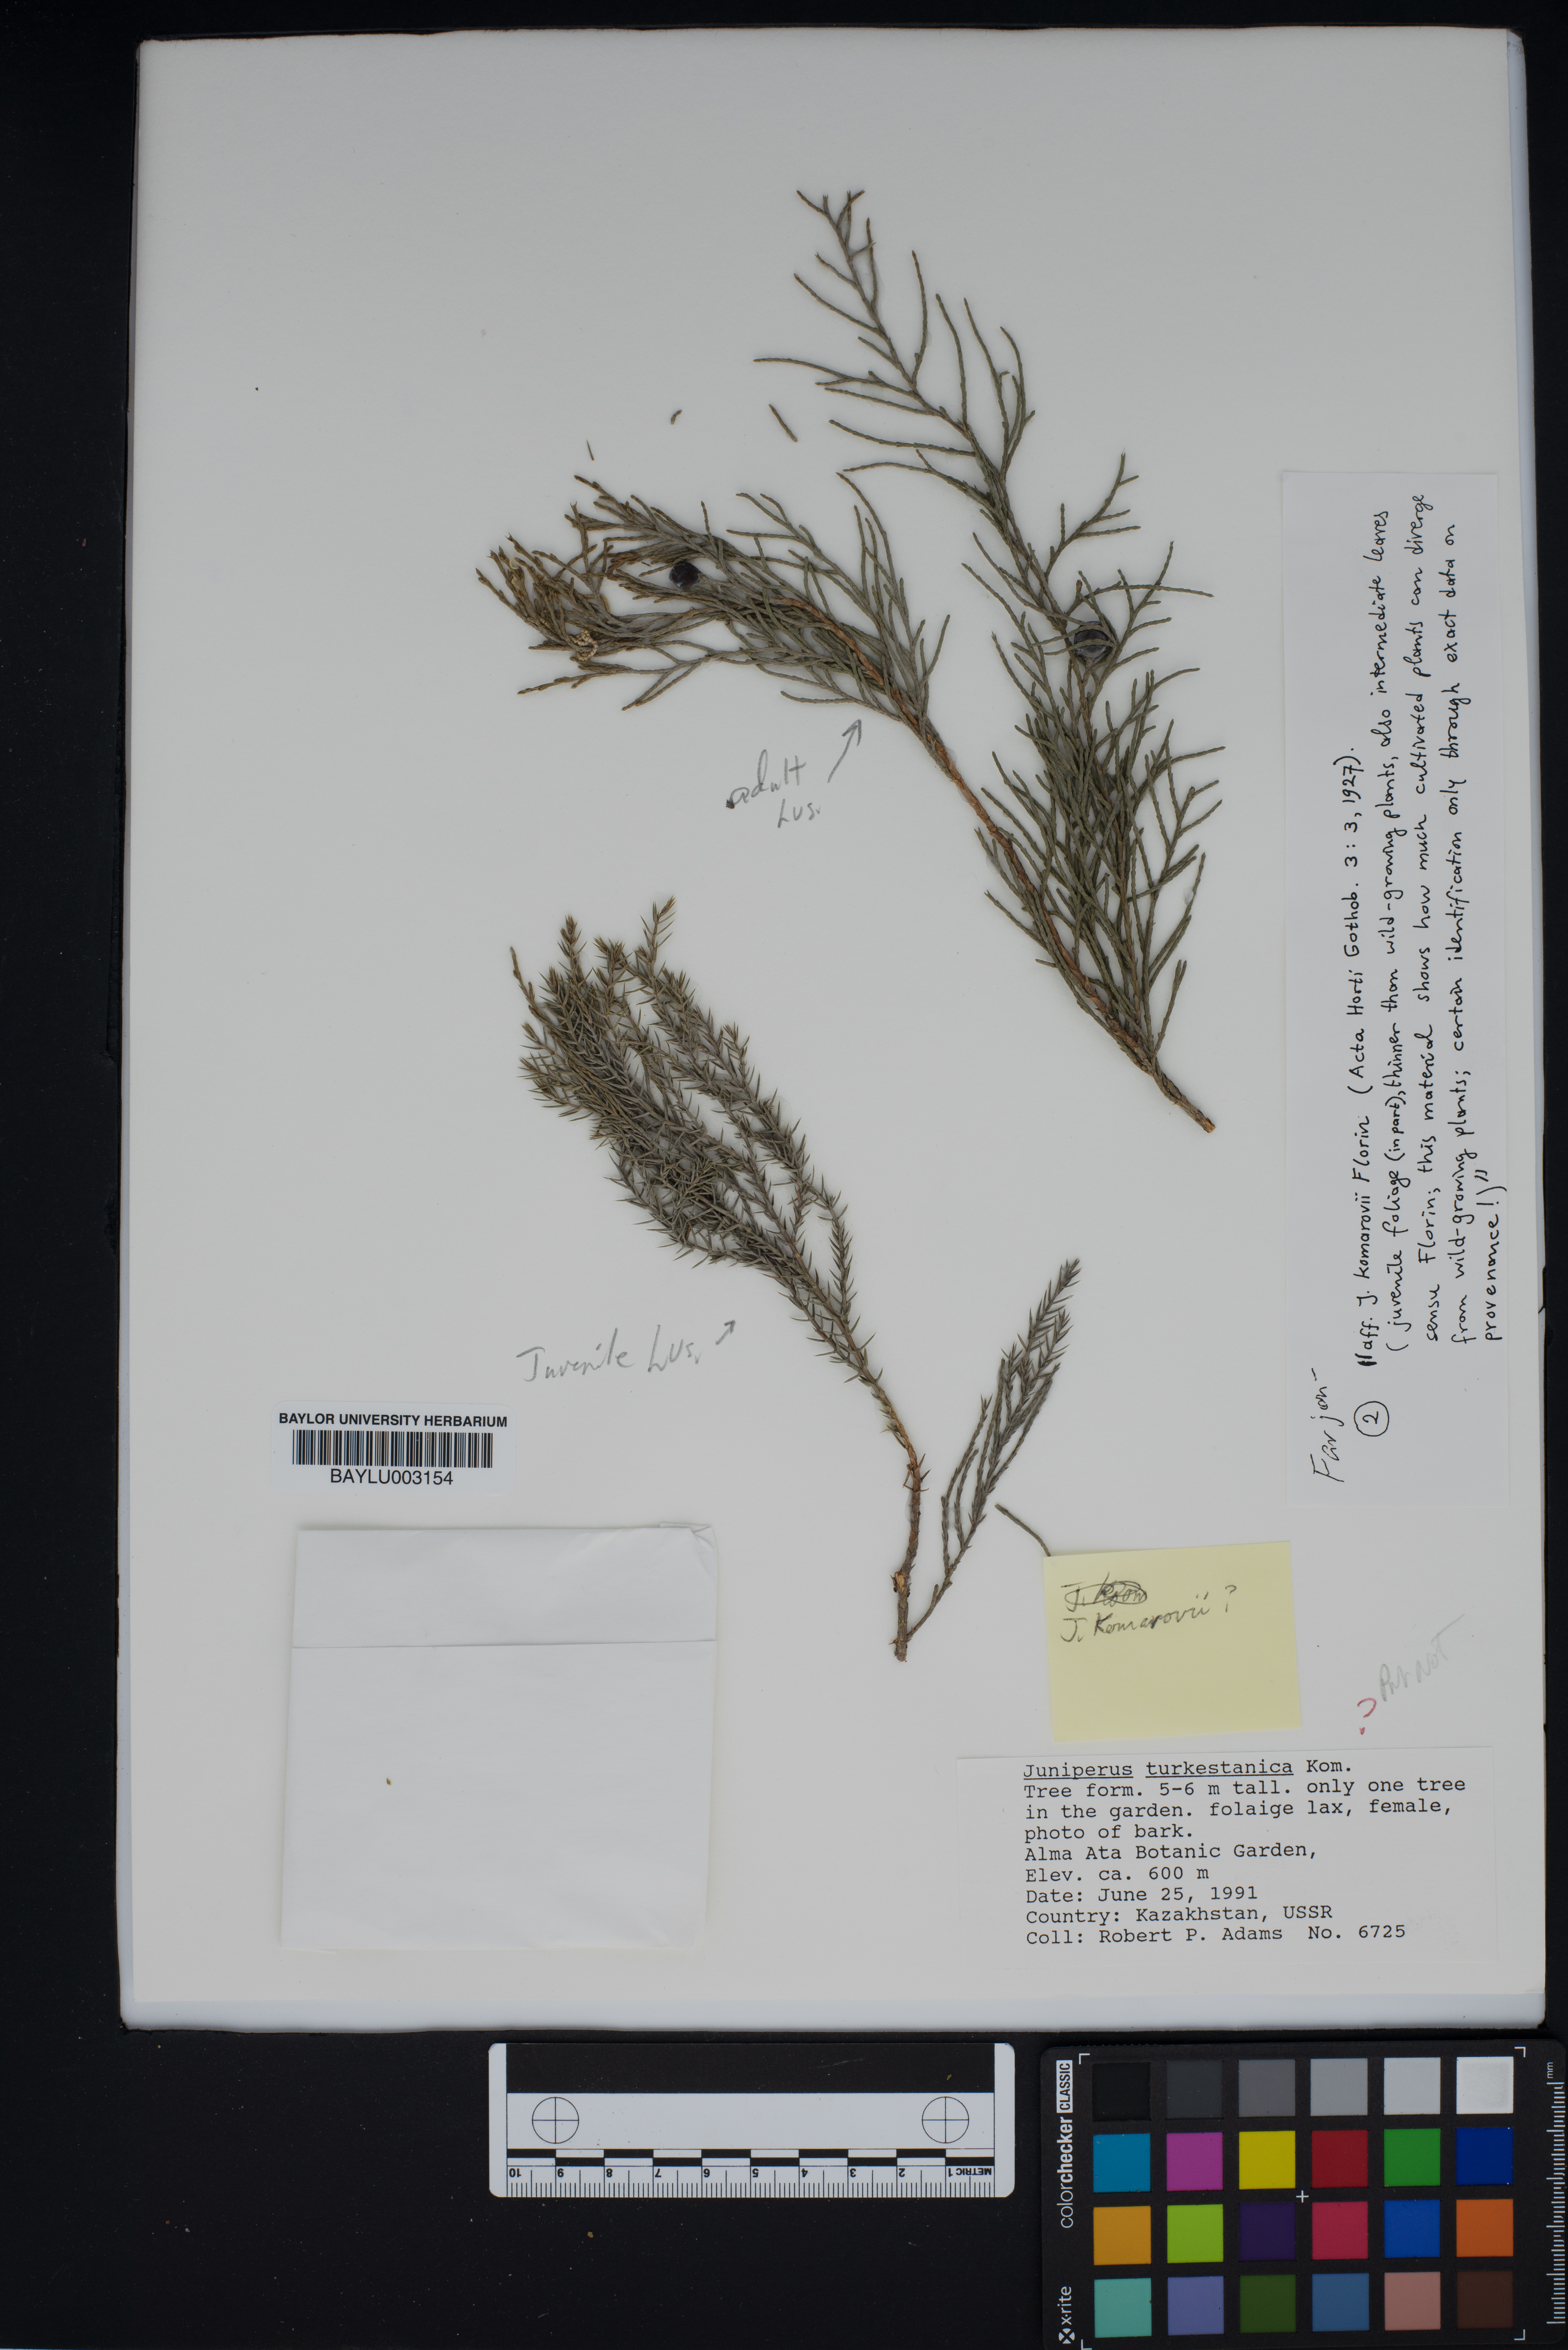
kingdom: Plantae
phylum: Tracheophyta
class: Pinopsida
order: Pinales
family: Cupressaceae
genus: Juniperus
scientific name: Juniperus pseudosabina
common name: Turkestan juniper
